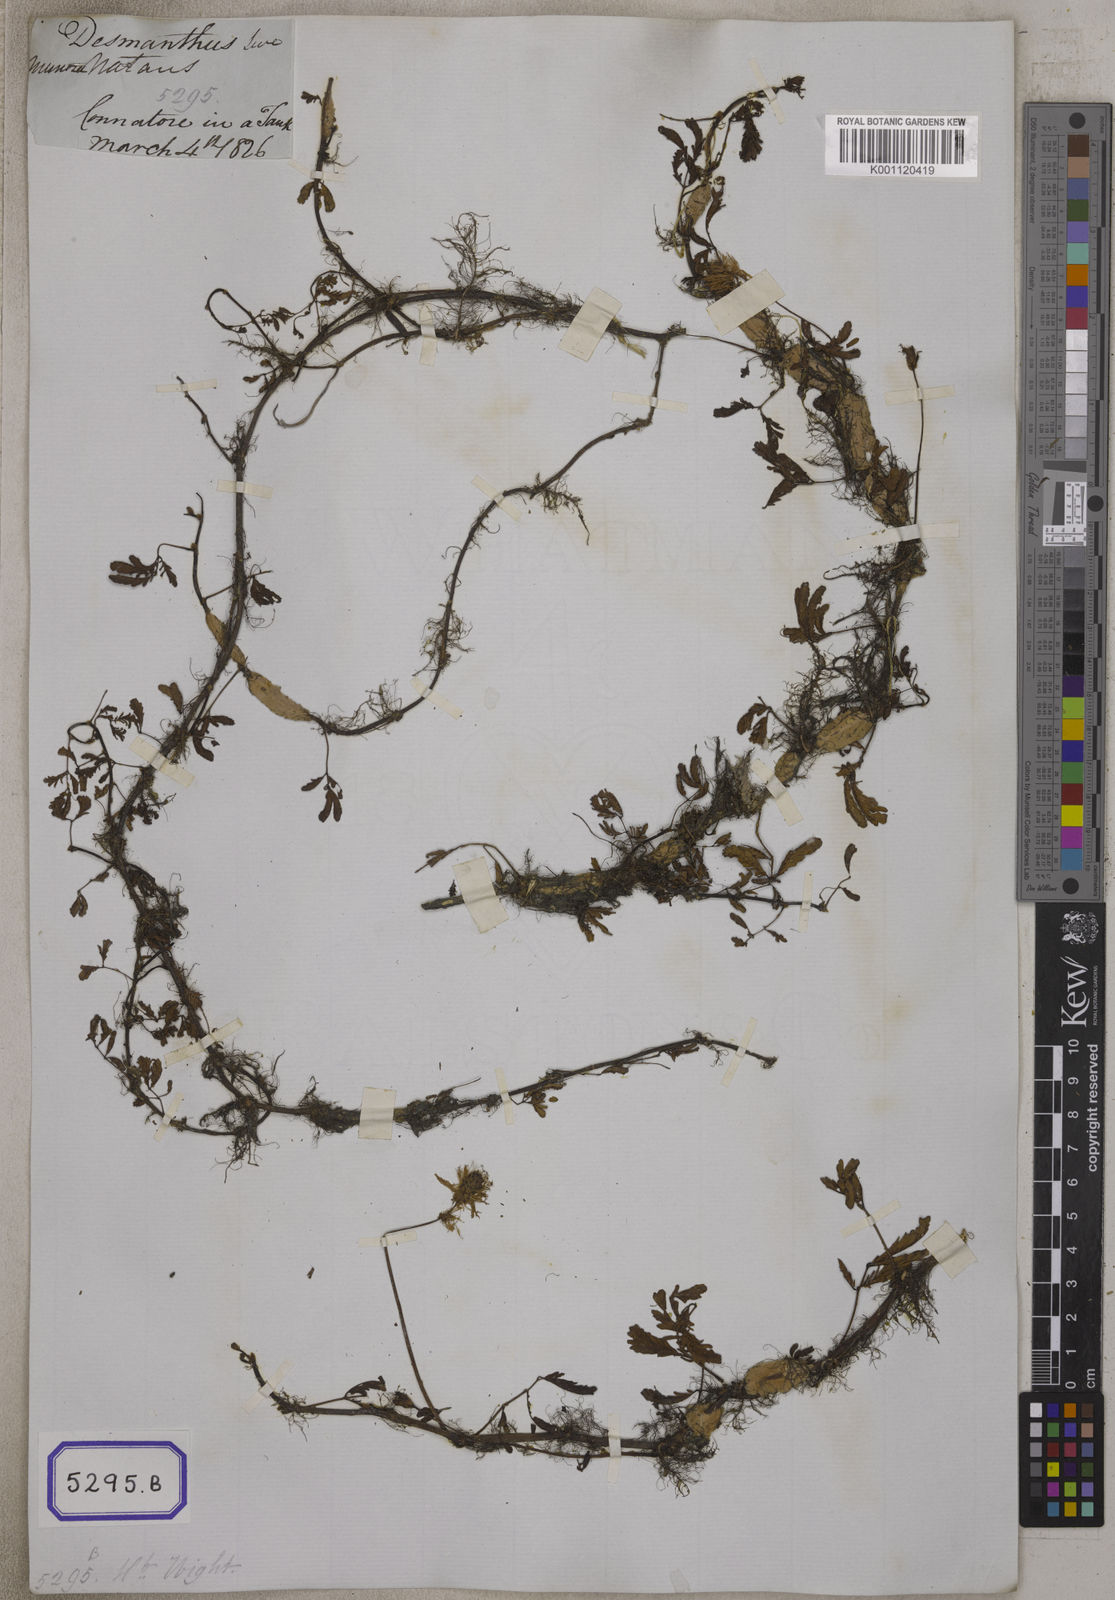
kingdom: Plantae
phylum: Tracheophyta
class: Magnoliopsida
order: Fabales
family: Fabaceae
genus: Neptunia
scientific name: Neptunia prostrata
